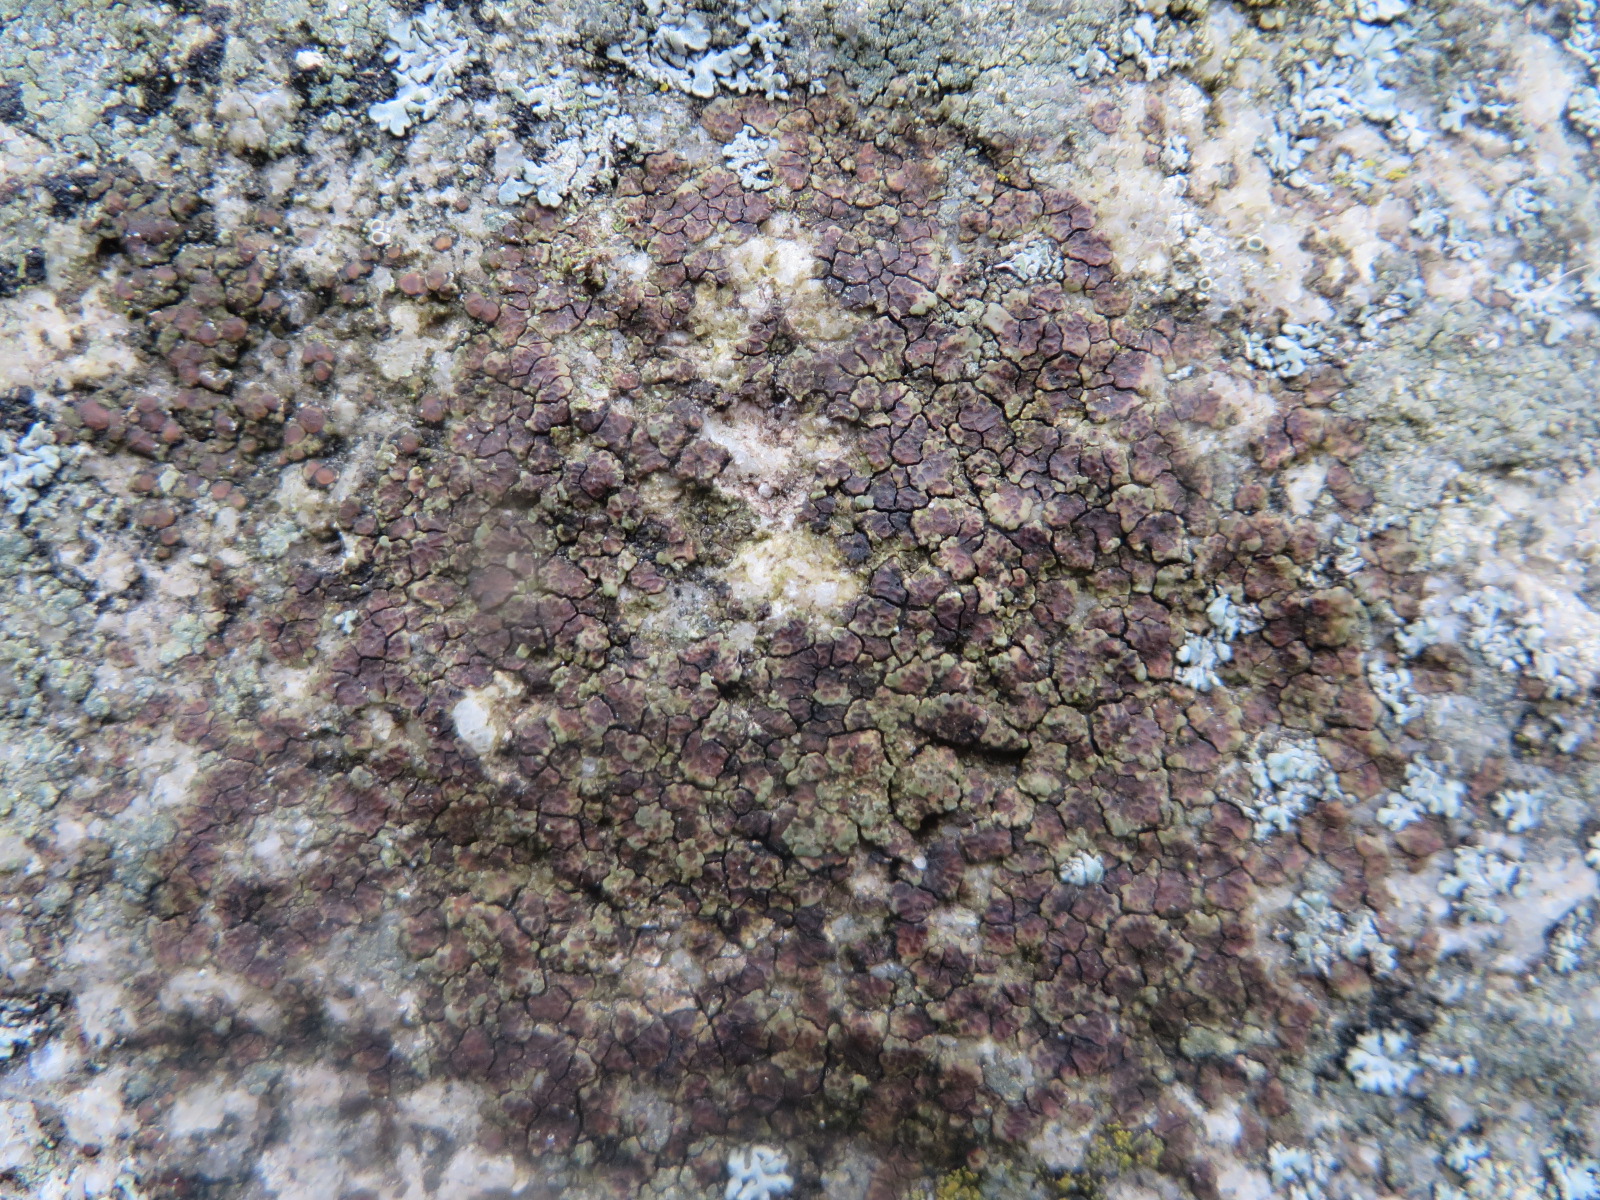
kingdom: Fungi
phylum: Ascomycota
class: Lecanoromycetes
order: Acarosporales
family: Acarosporaceae
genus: Acarospora
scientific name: Acarospora fuscata
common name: brun småsporelav
